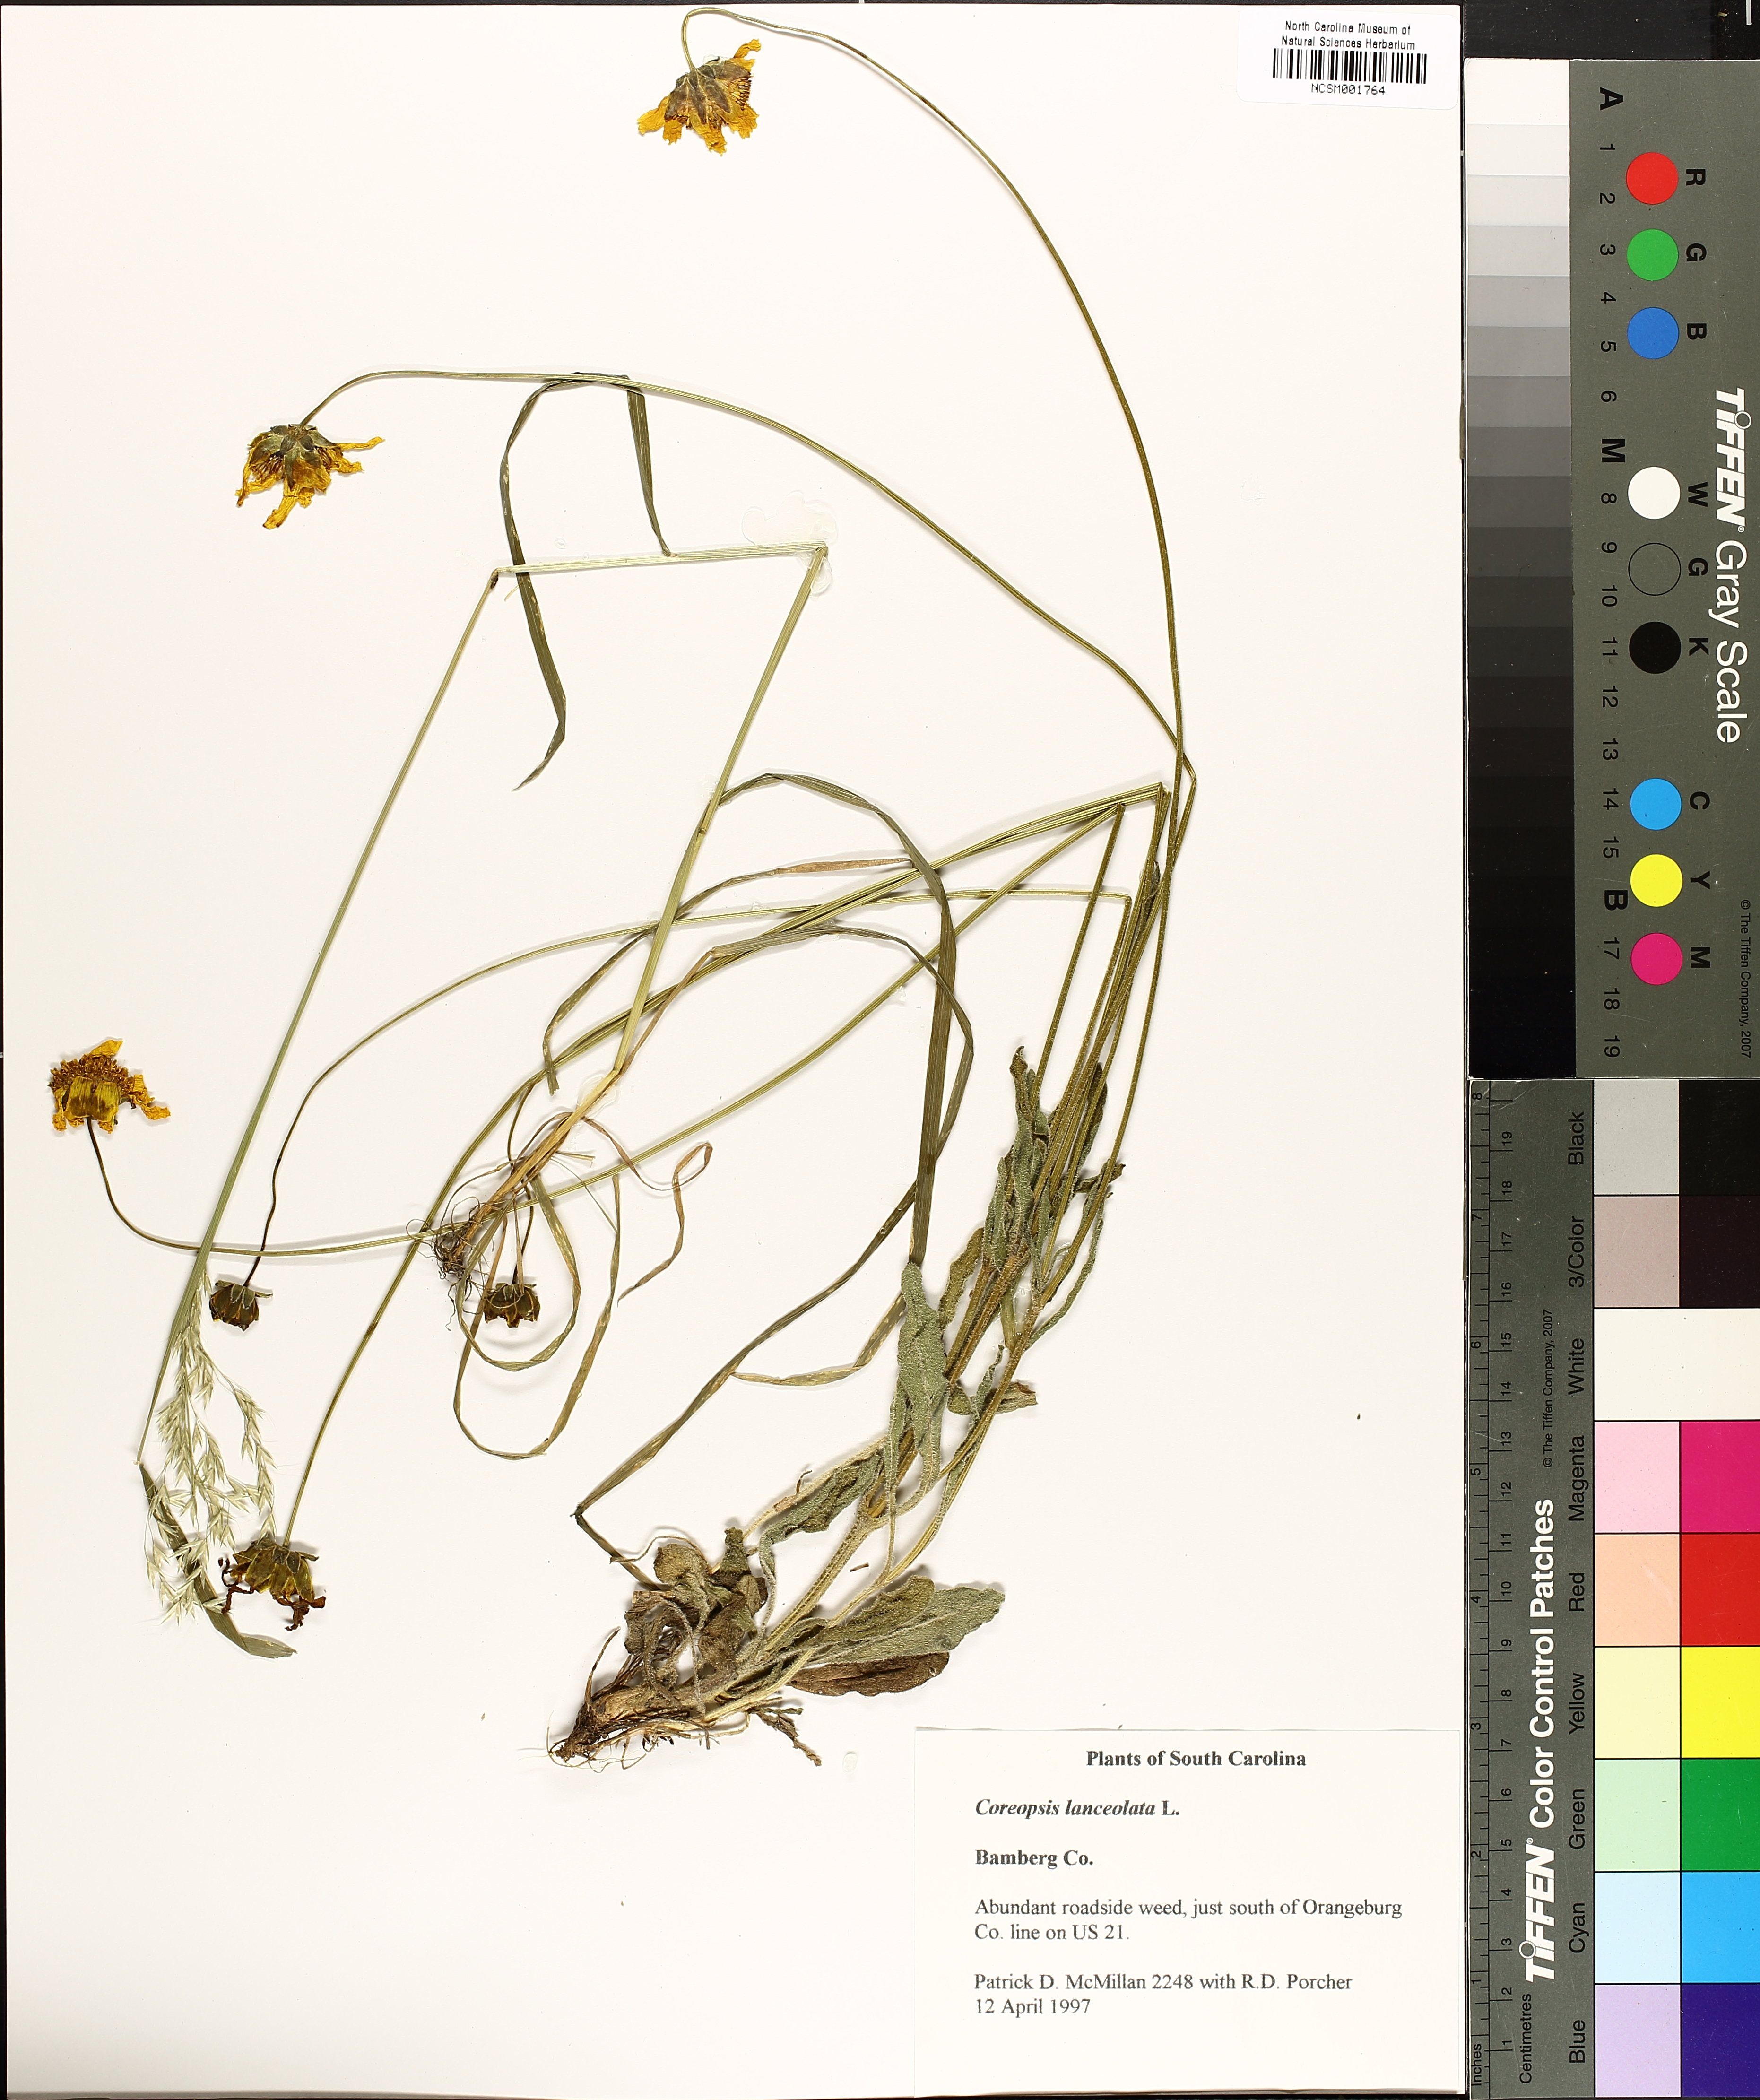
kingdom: Plantae
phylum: Tracheophyta
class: Magnoliopsida
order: Asterales
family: Asteraceae
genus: Coreopsis
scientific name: Coreopsis lanceolata
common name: Garden coreopsis
